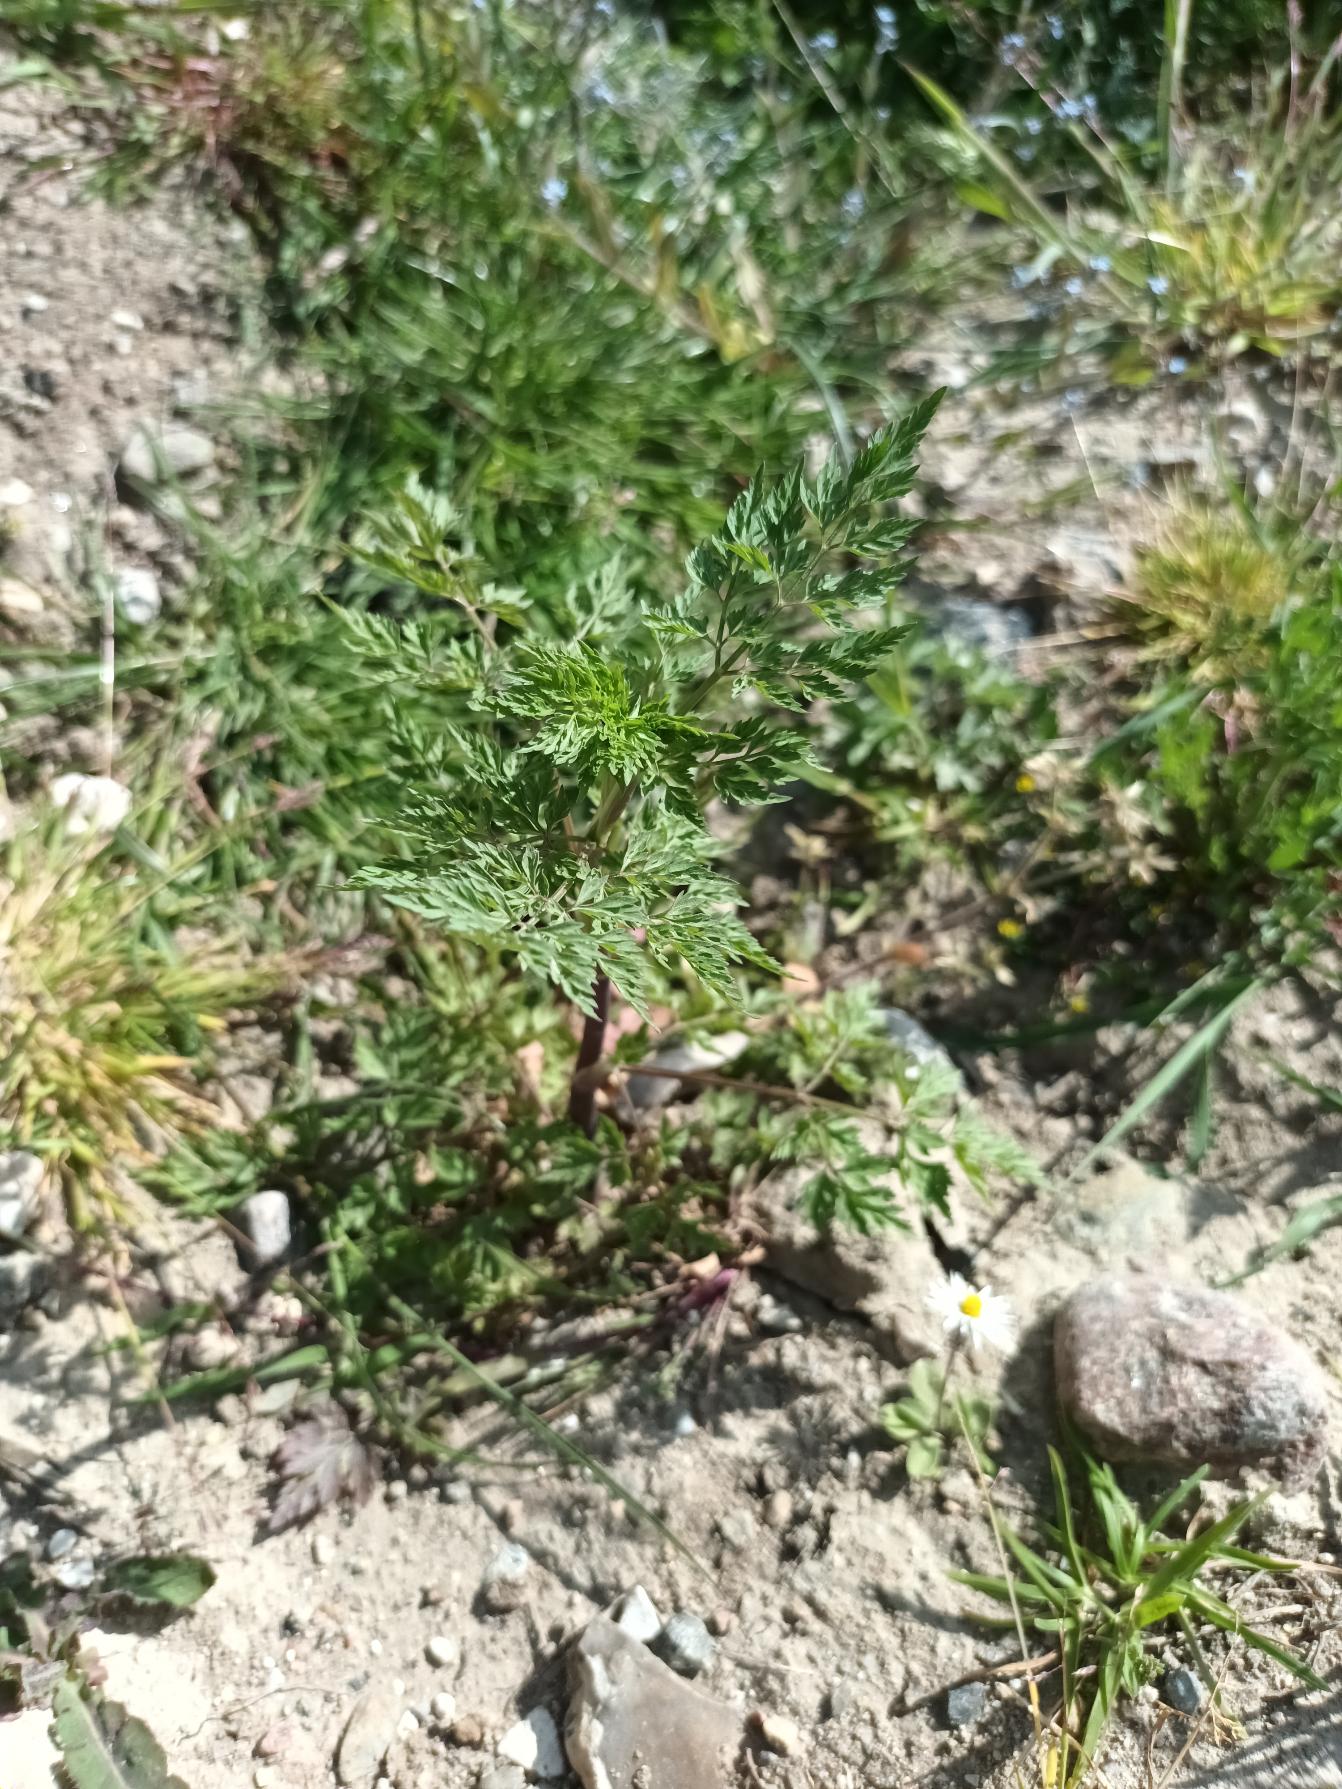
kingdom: Plantae
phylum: Tracheophyta
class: Magnoliopsida
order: Apiales
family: Apiaceae
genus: Aethusa
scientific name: Aethusa cynapium
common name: Hundepersille
